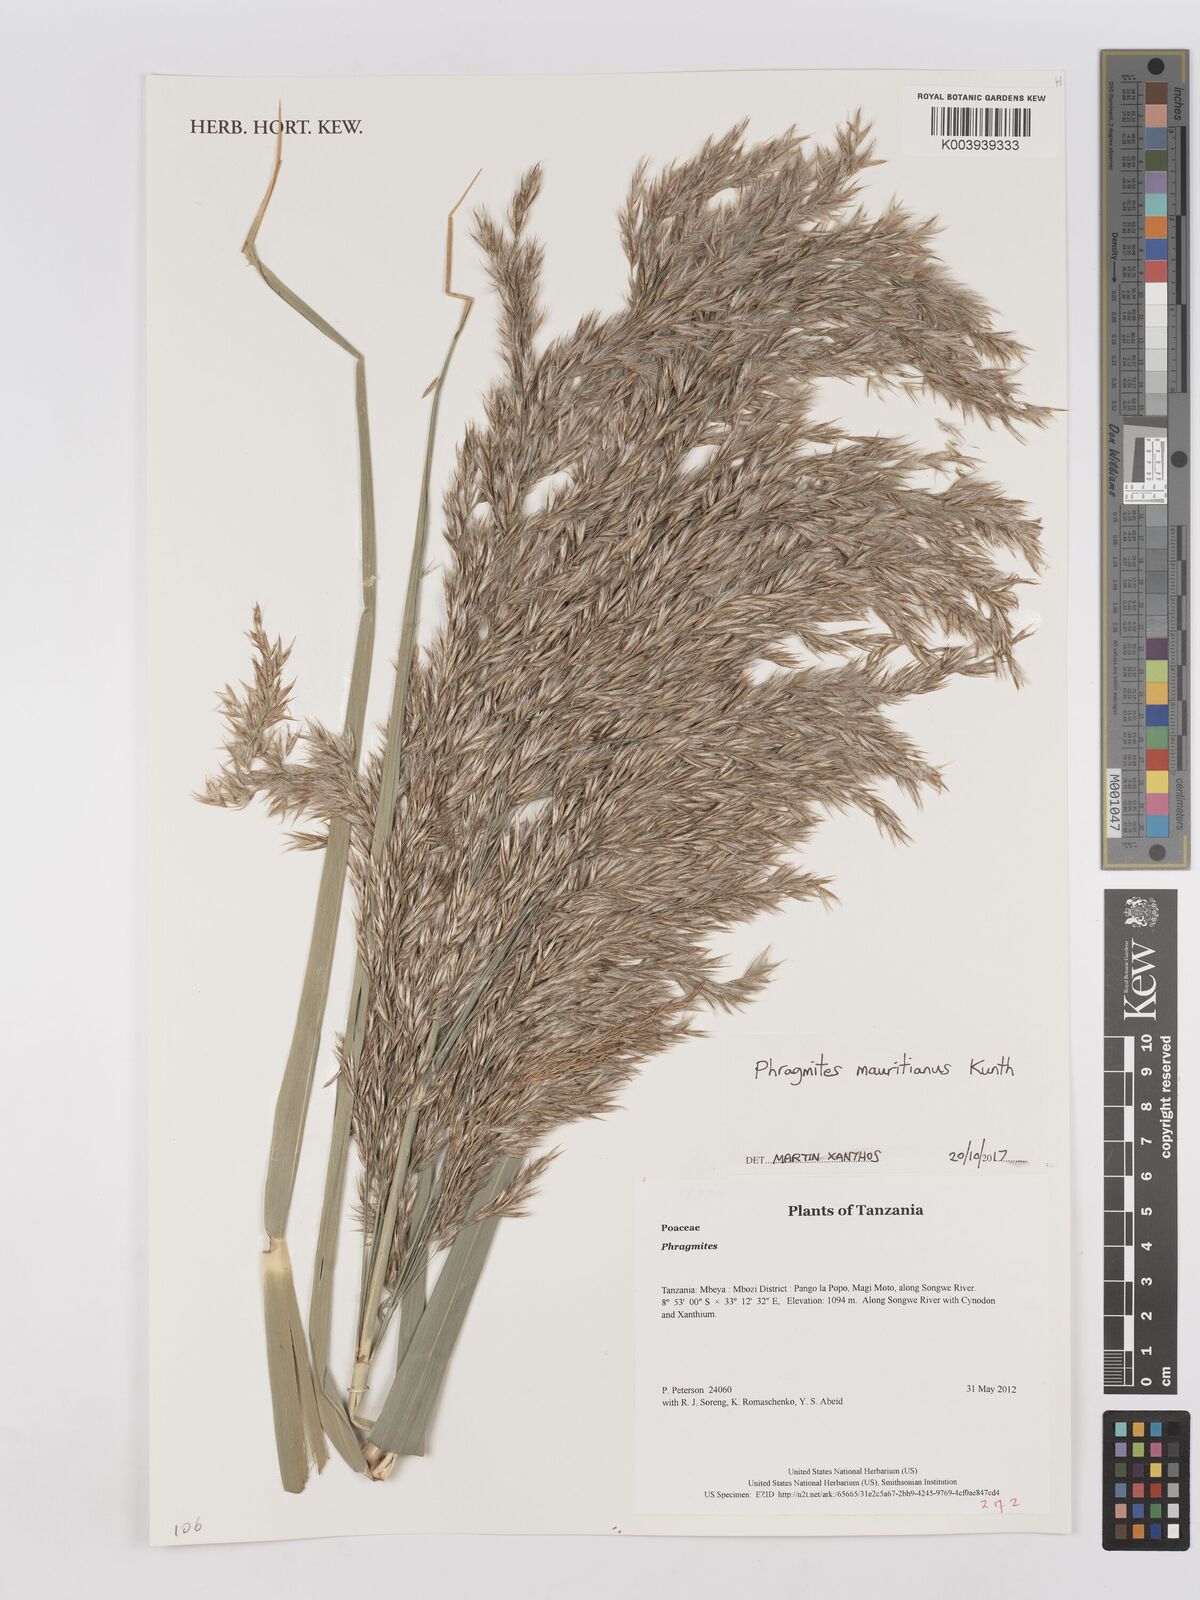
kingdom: Plantae
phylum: Tracheophyta
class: Liliopsida
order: Poales
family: Poaceae
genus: Phragmites
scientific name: Phragmites mauritianus
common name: Reed grass
